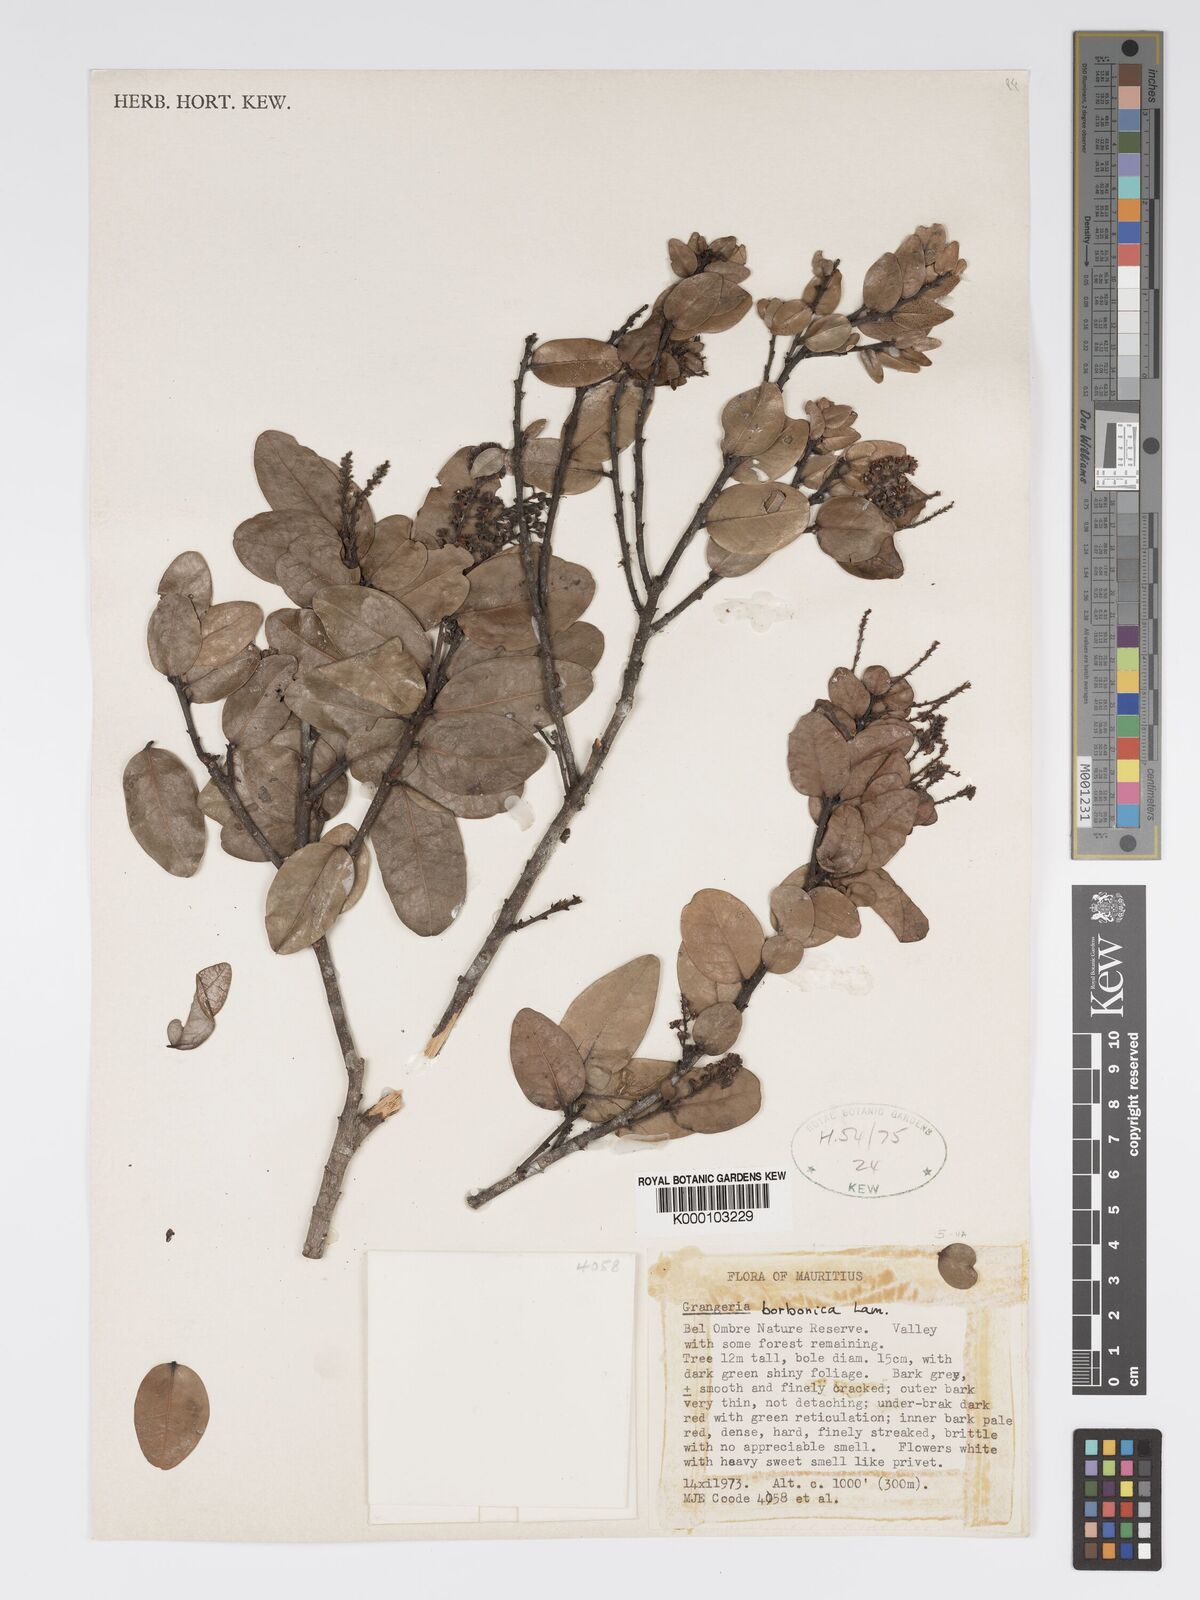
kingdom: Plantae
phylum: Tracheophyta
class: Magnoliopsida
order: Malpighiales
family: Chrysobalanaceae
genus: Grangeria
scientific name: Grangeria borbonica
